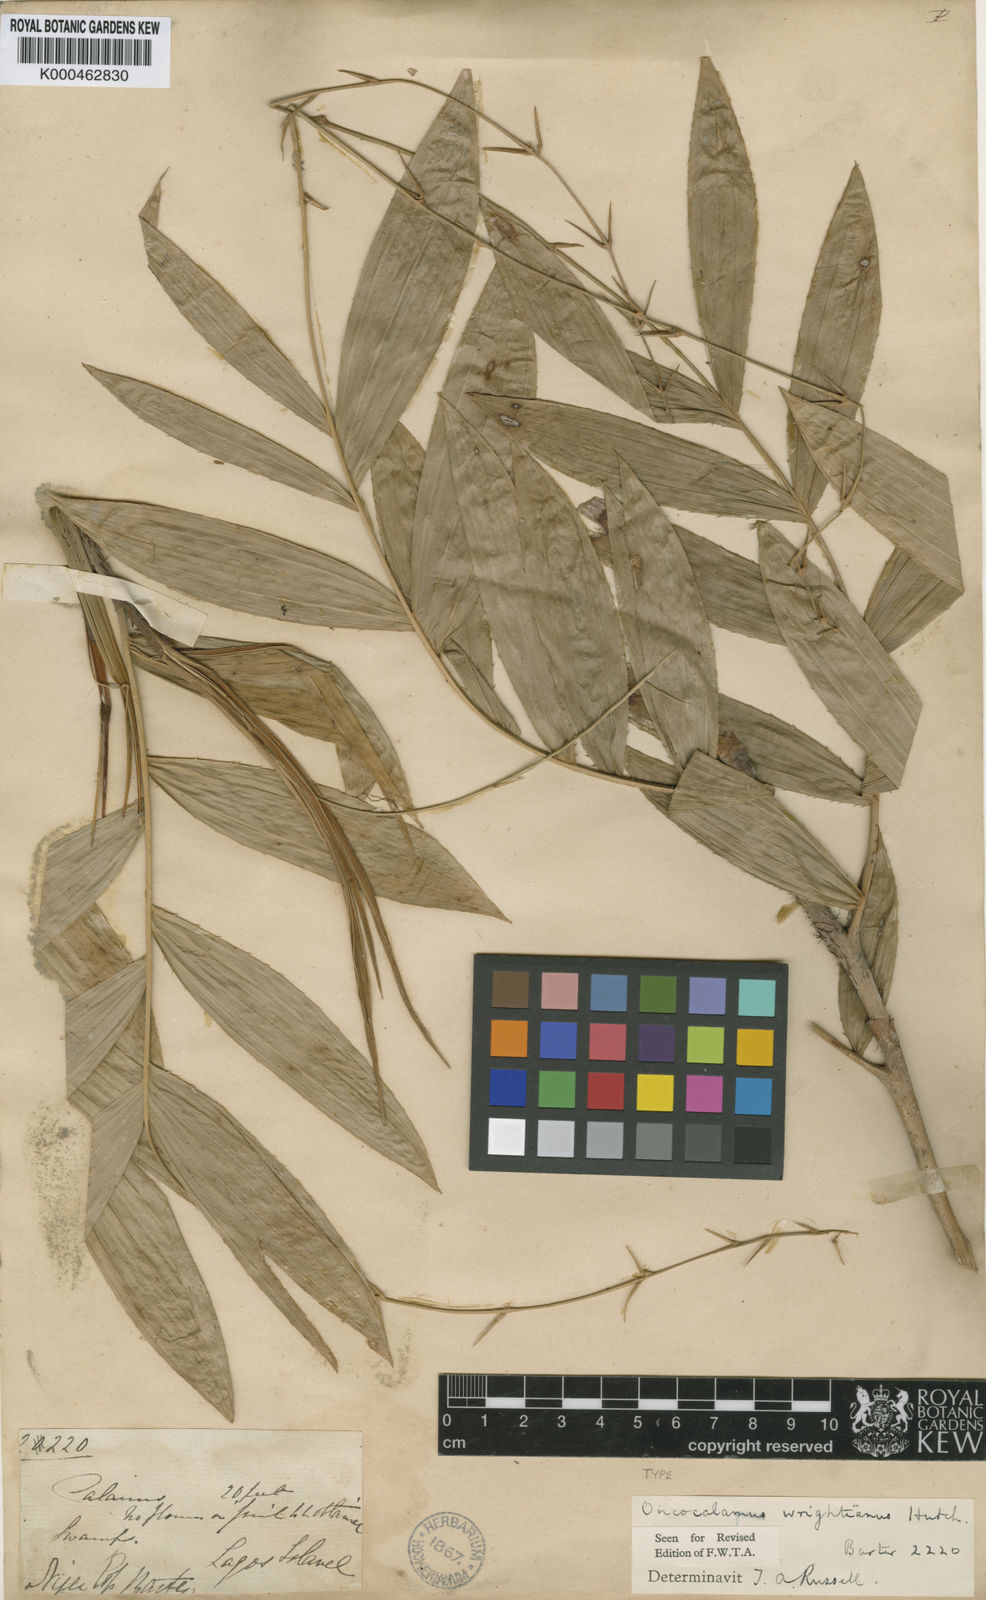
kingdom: Plantae
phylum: Tracheophyta
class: Liliopsida
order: Arecales
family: Arecaceae
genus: Oncocalamus
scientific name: Oncocalamus wrightianus
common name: Rattan
